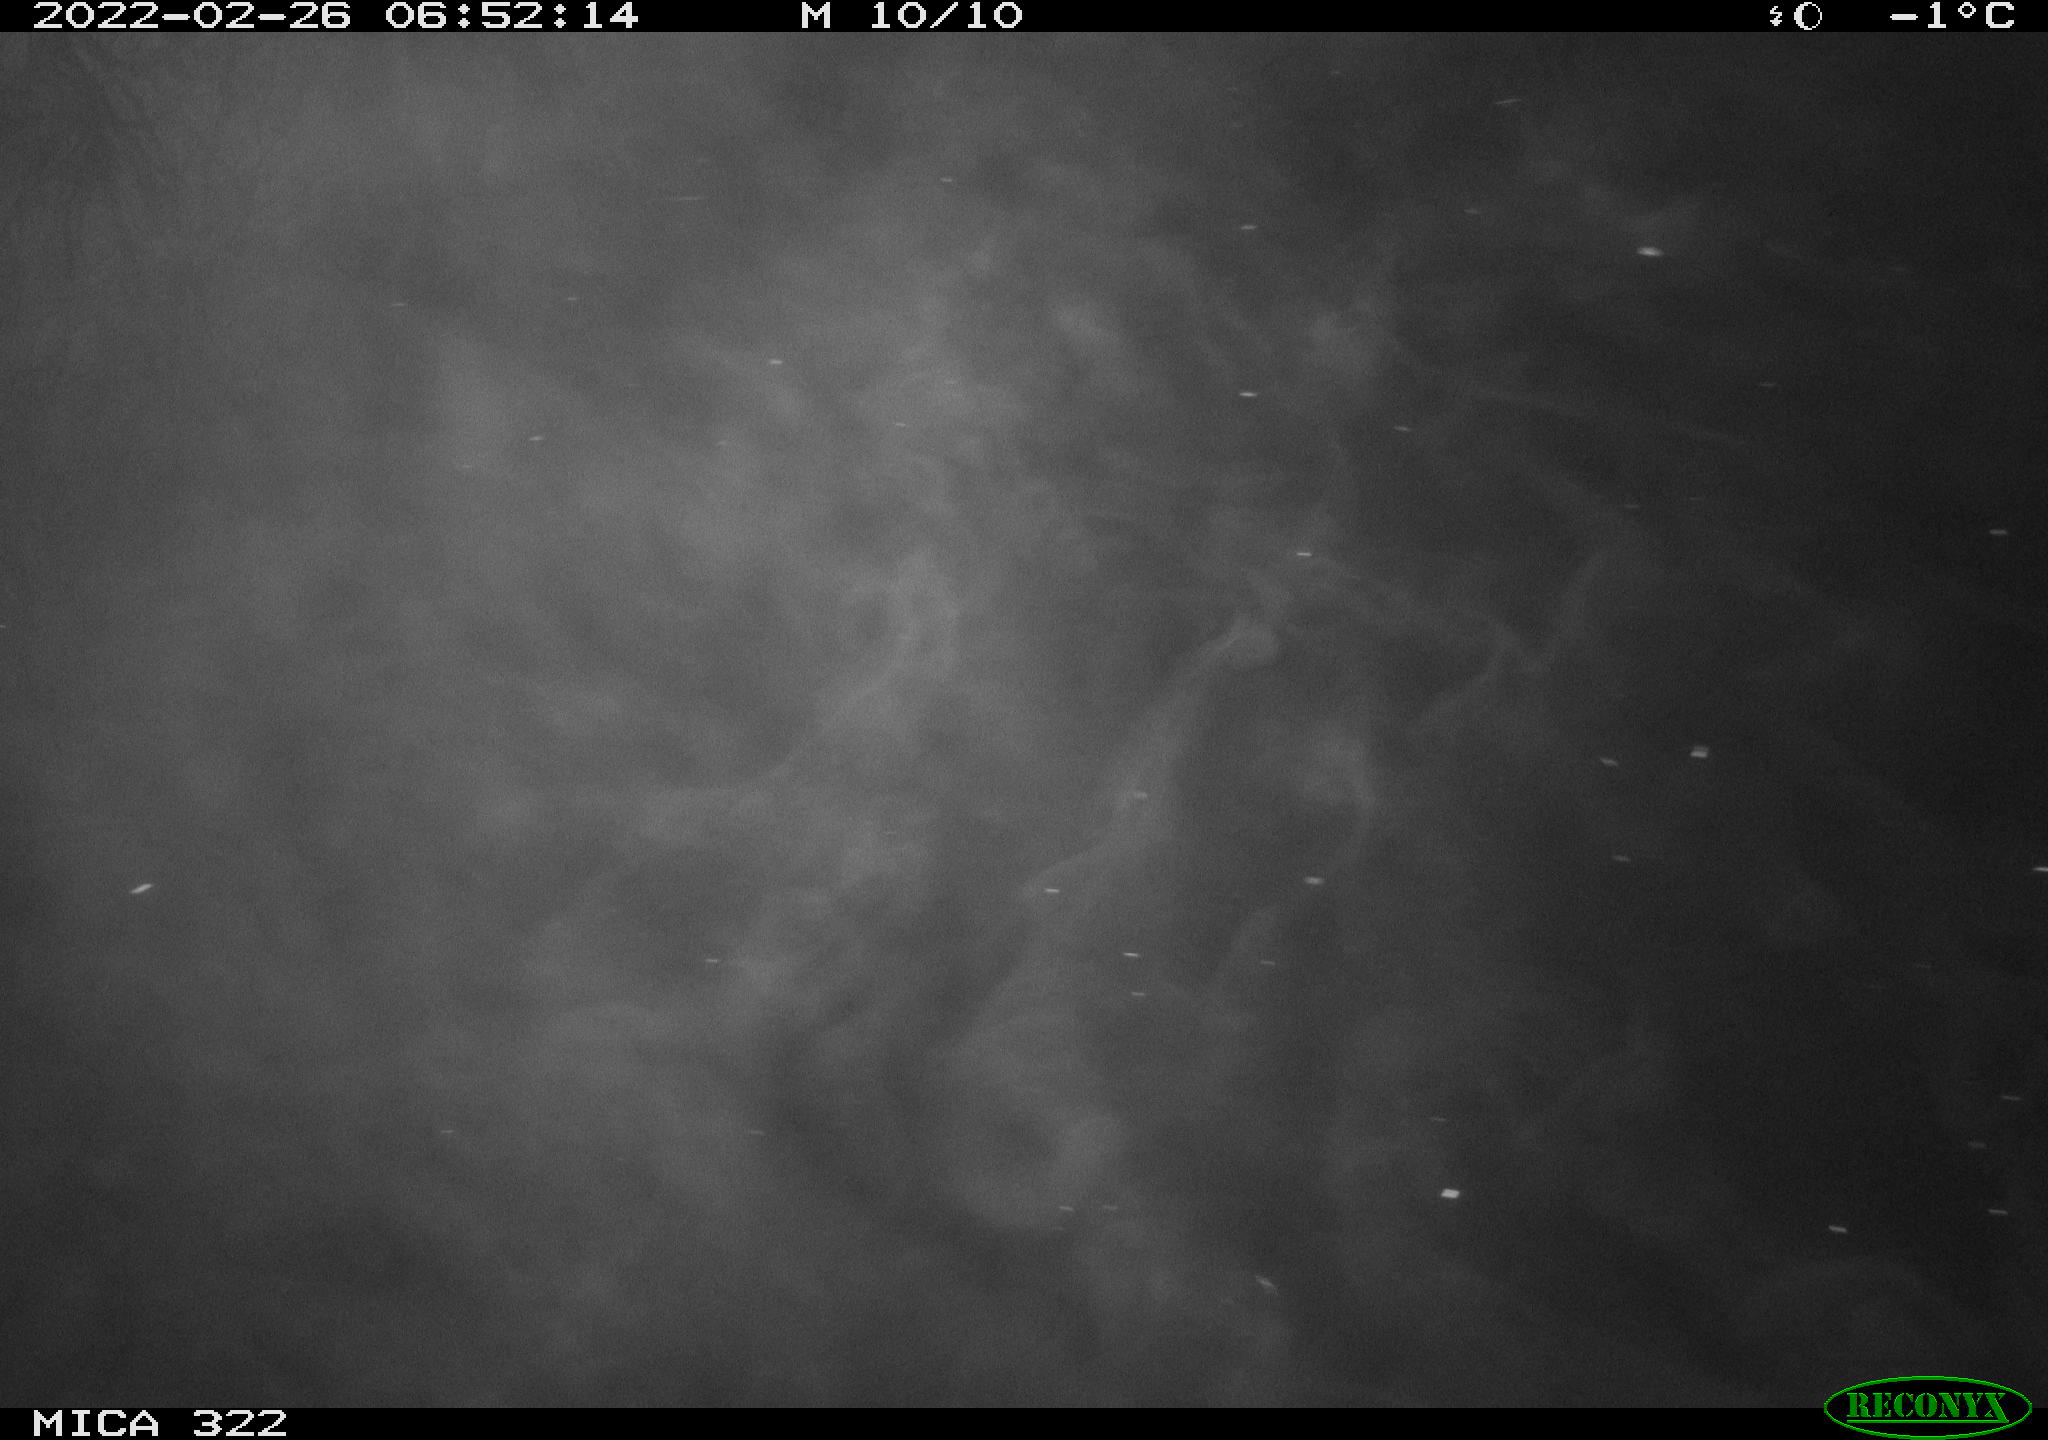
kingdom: Animalia
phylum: Chordata
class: Aves
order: Gruiformes
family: Rallidae
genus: Gallinula
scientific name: Gallinula chloropus
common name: Common moorhen
